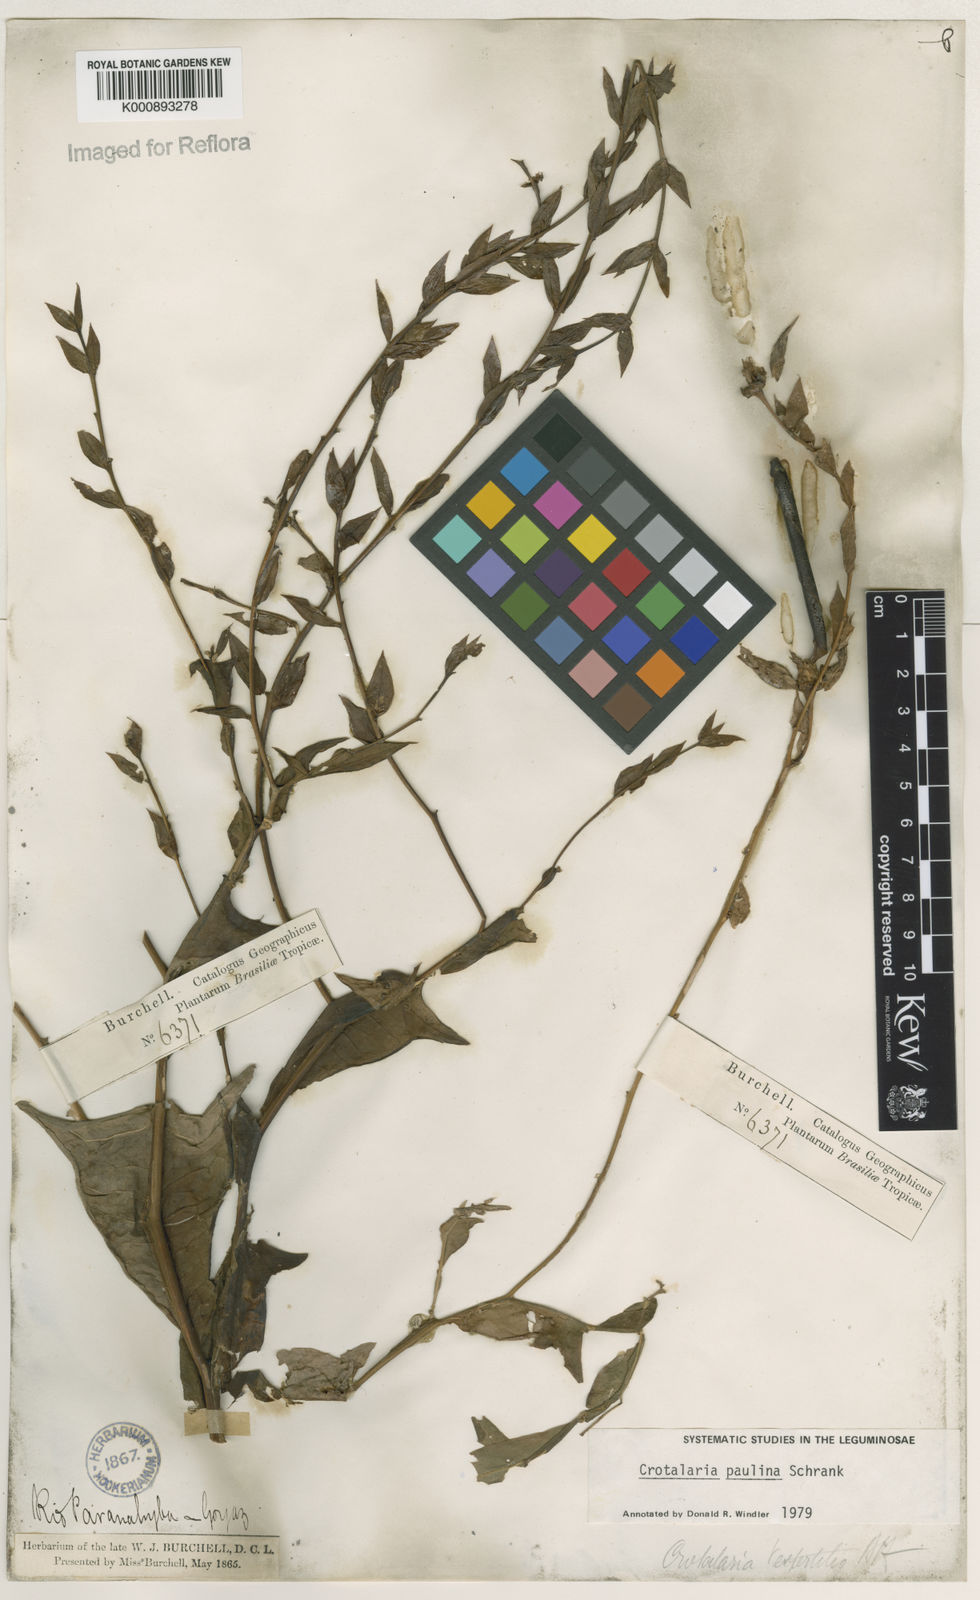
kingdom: Plantae
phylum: Tracheophyta
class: Magnoliopsida
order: Fabales
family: Fabaceae
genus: Crotalaria
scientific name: Crotalaria paulina
